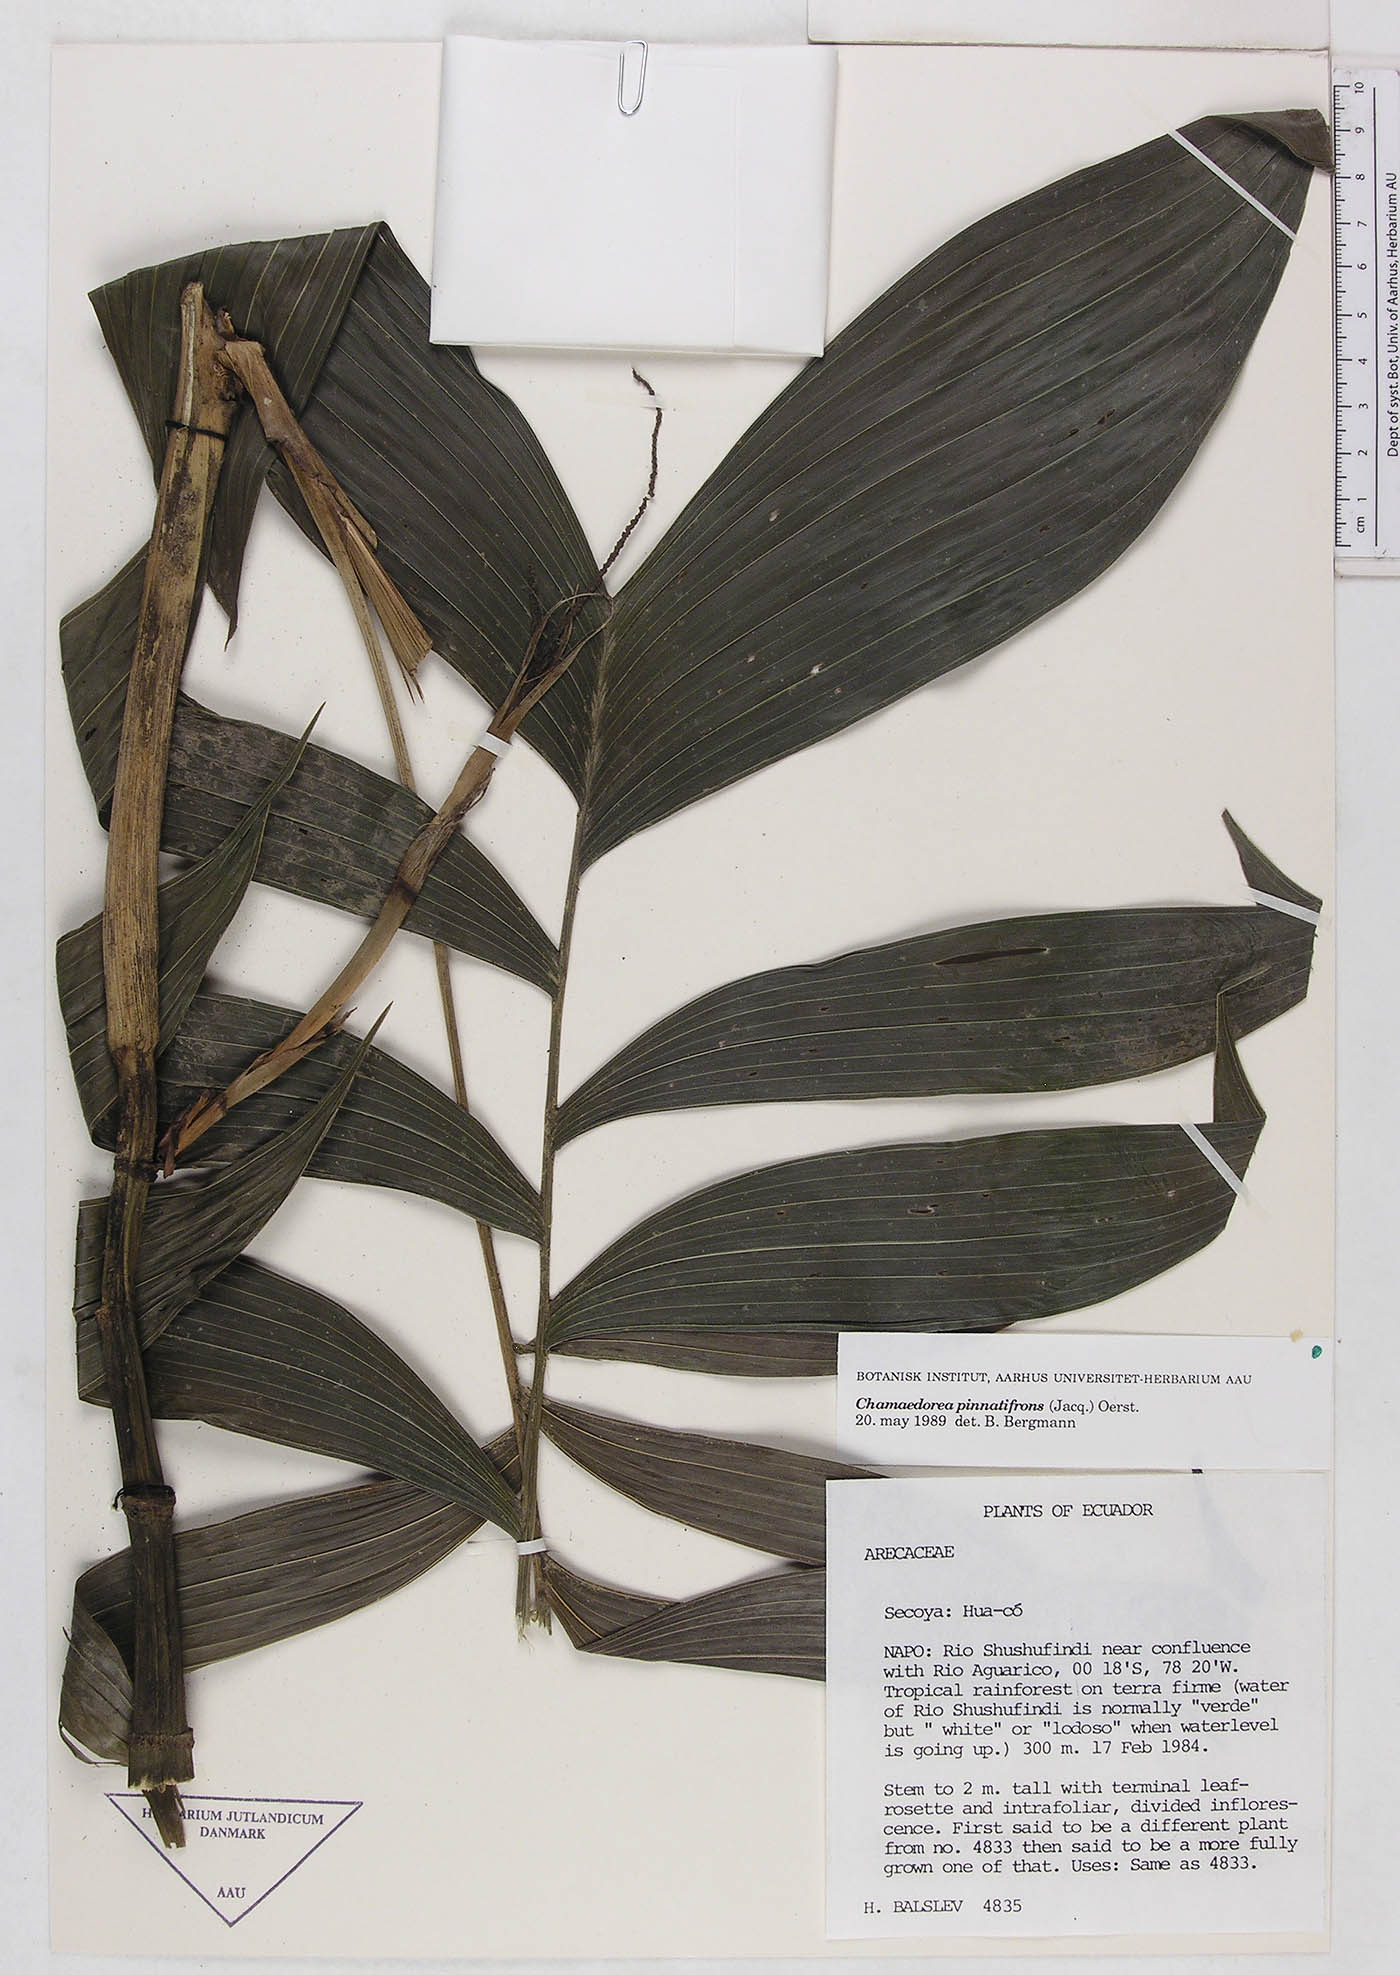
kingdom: Plantae
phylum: Tracheophyta
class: Liliopsida
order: Arecales
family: Arecaceae
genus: Chamaedorea
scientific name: Chamaedorea pinnatifrons
